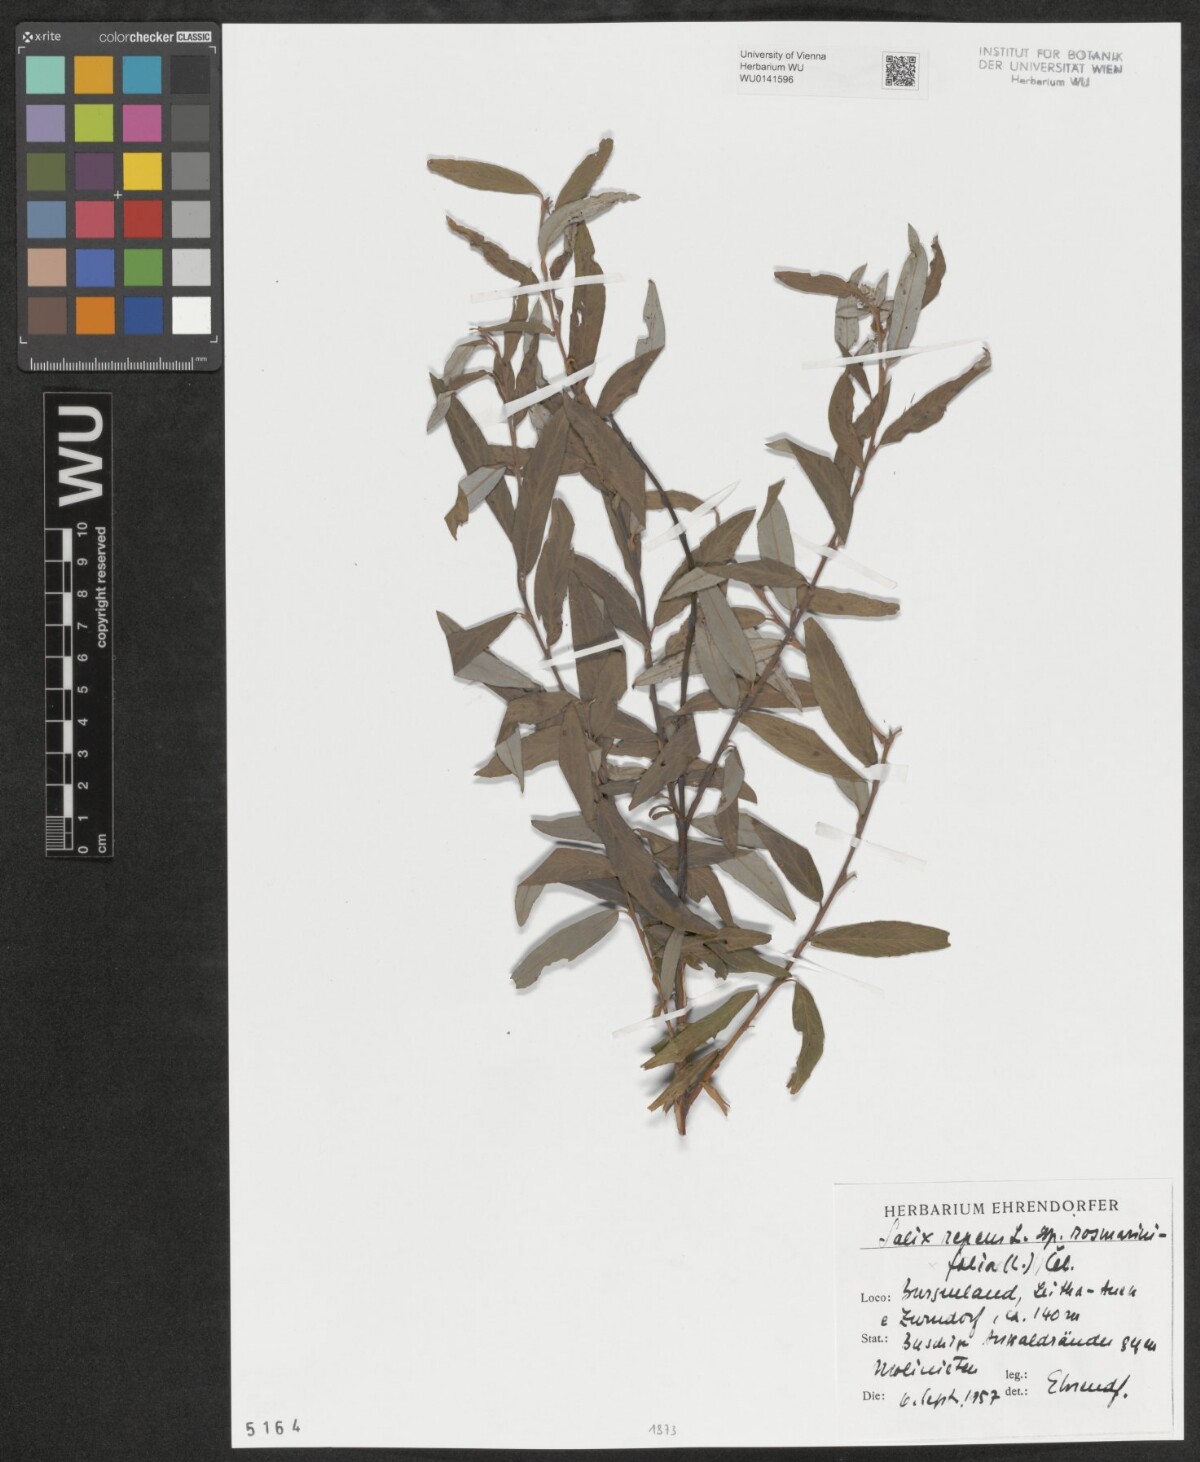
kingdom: Plantae
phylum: Tracheophyta
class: Magnoliopsida
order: Malpighiales
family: Salicaceae
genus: Salix
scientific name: Salix repens
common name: Creeping willow
